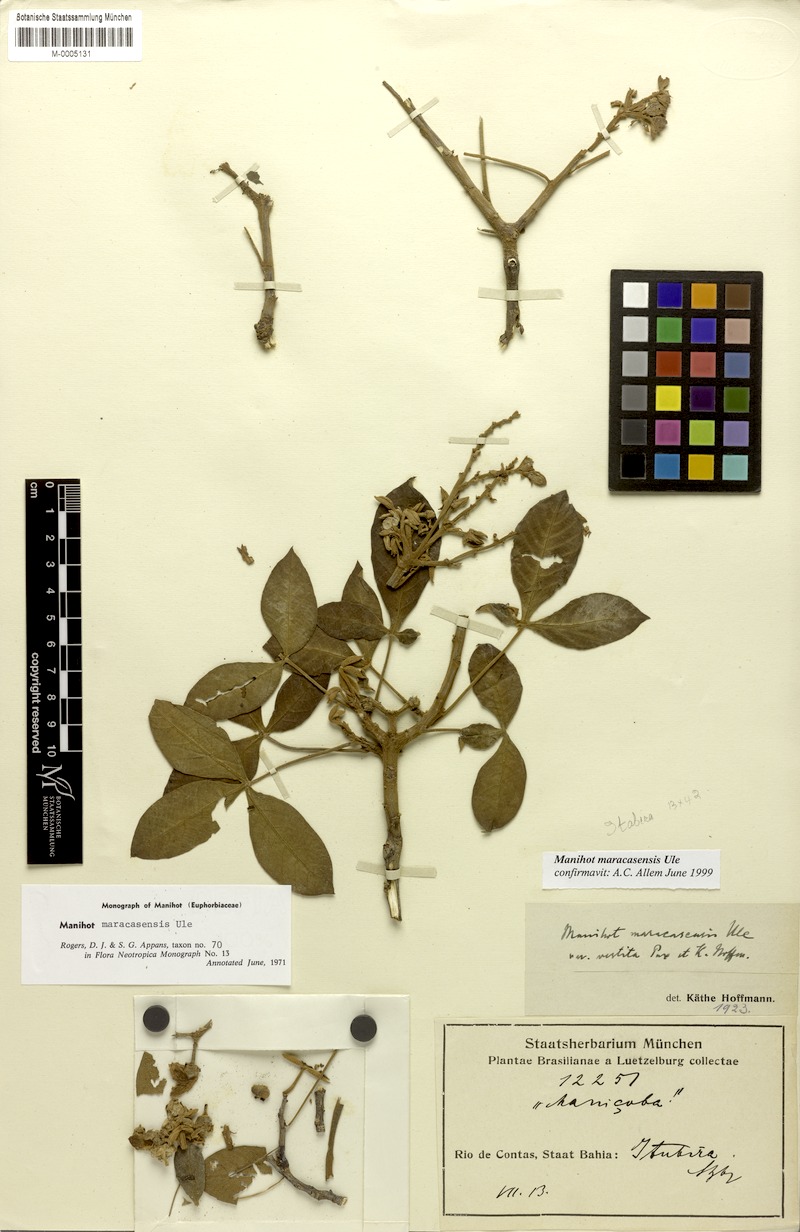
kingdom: Plantae
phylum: Tracheophyta
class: Magnoliopsida
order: Malpighiales
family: Euphorbiaceae
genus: Manihot
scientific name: Manihot maracasensis
